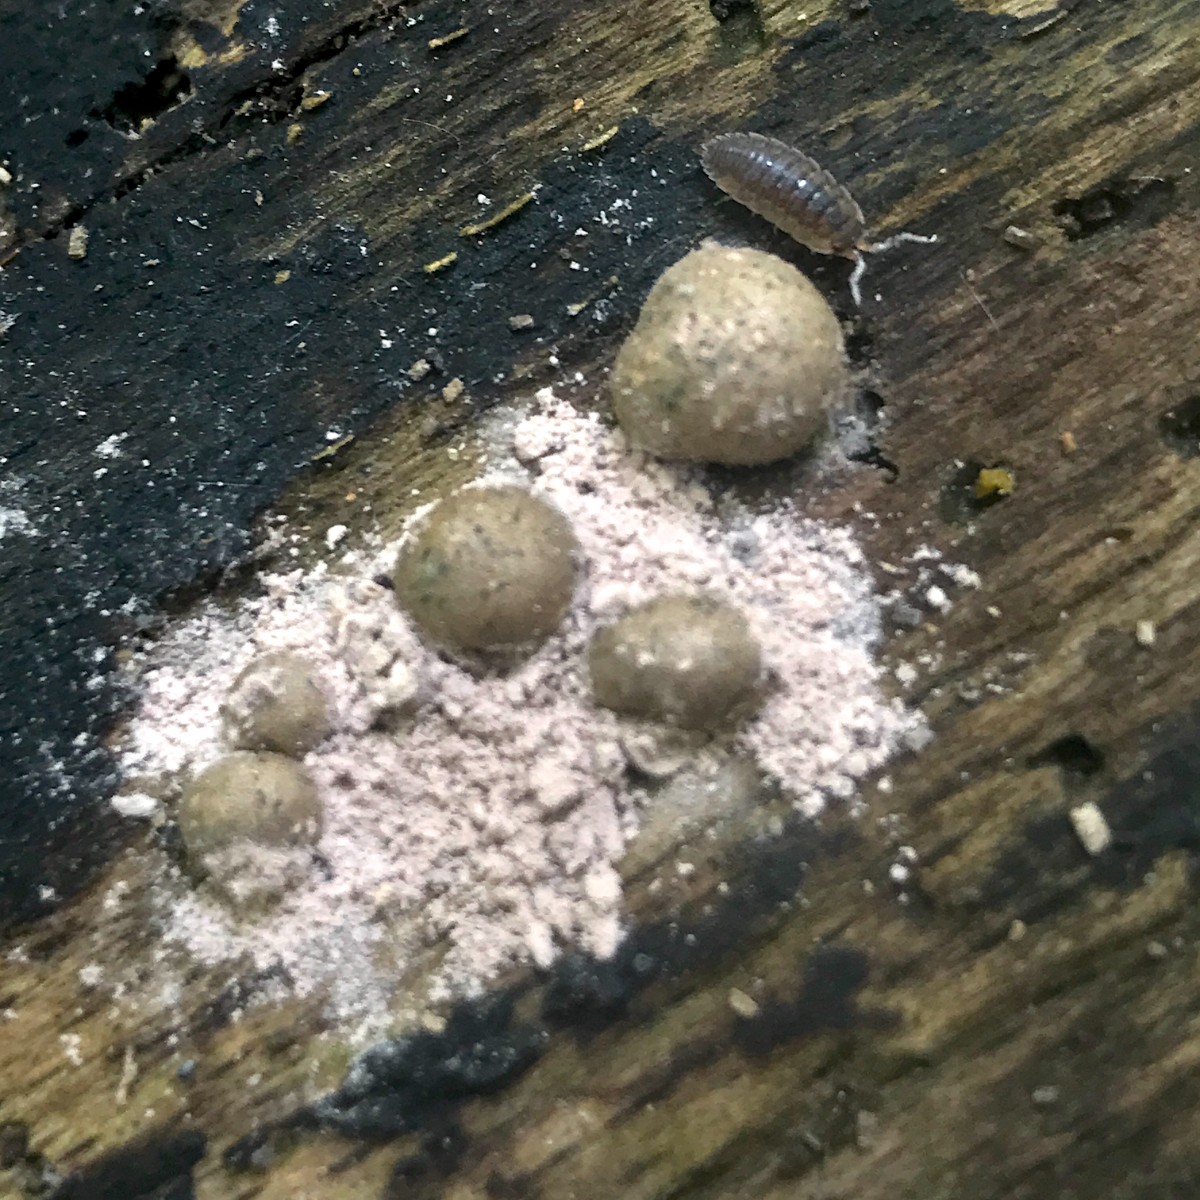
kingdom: Protozoa
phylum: Mycetozoa
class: Myxomycetes
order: Cribrariales
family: Tubiferaceae
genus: Lycogala
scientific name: Lycogala epidendrum
